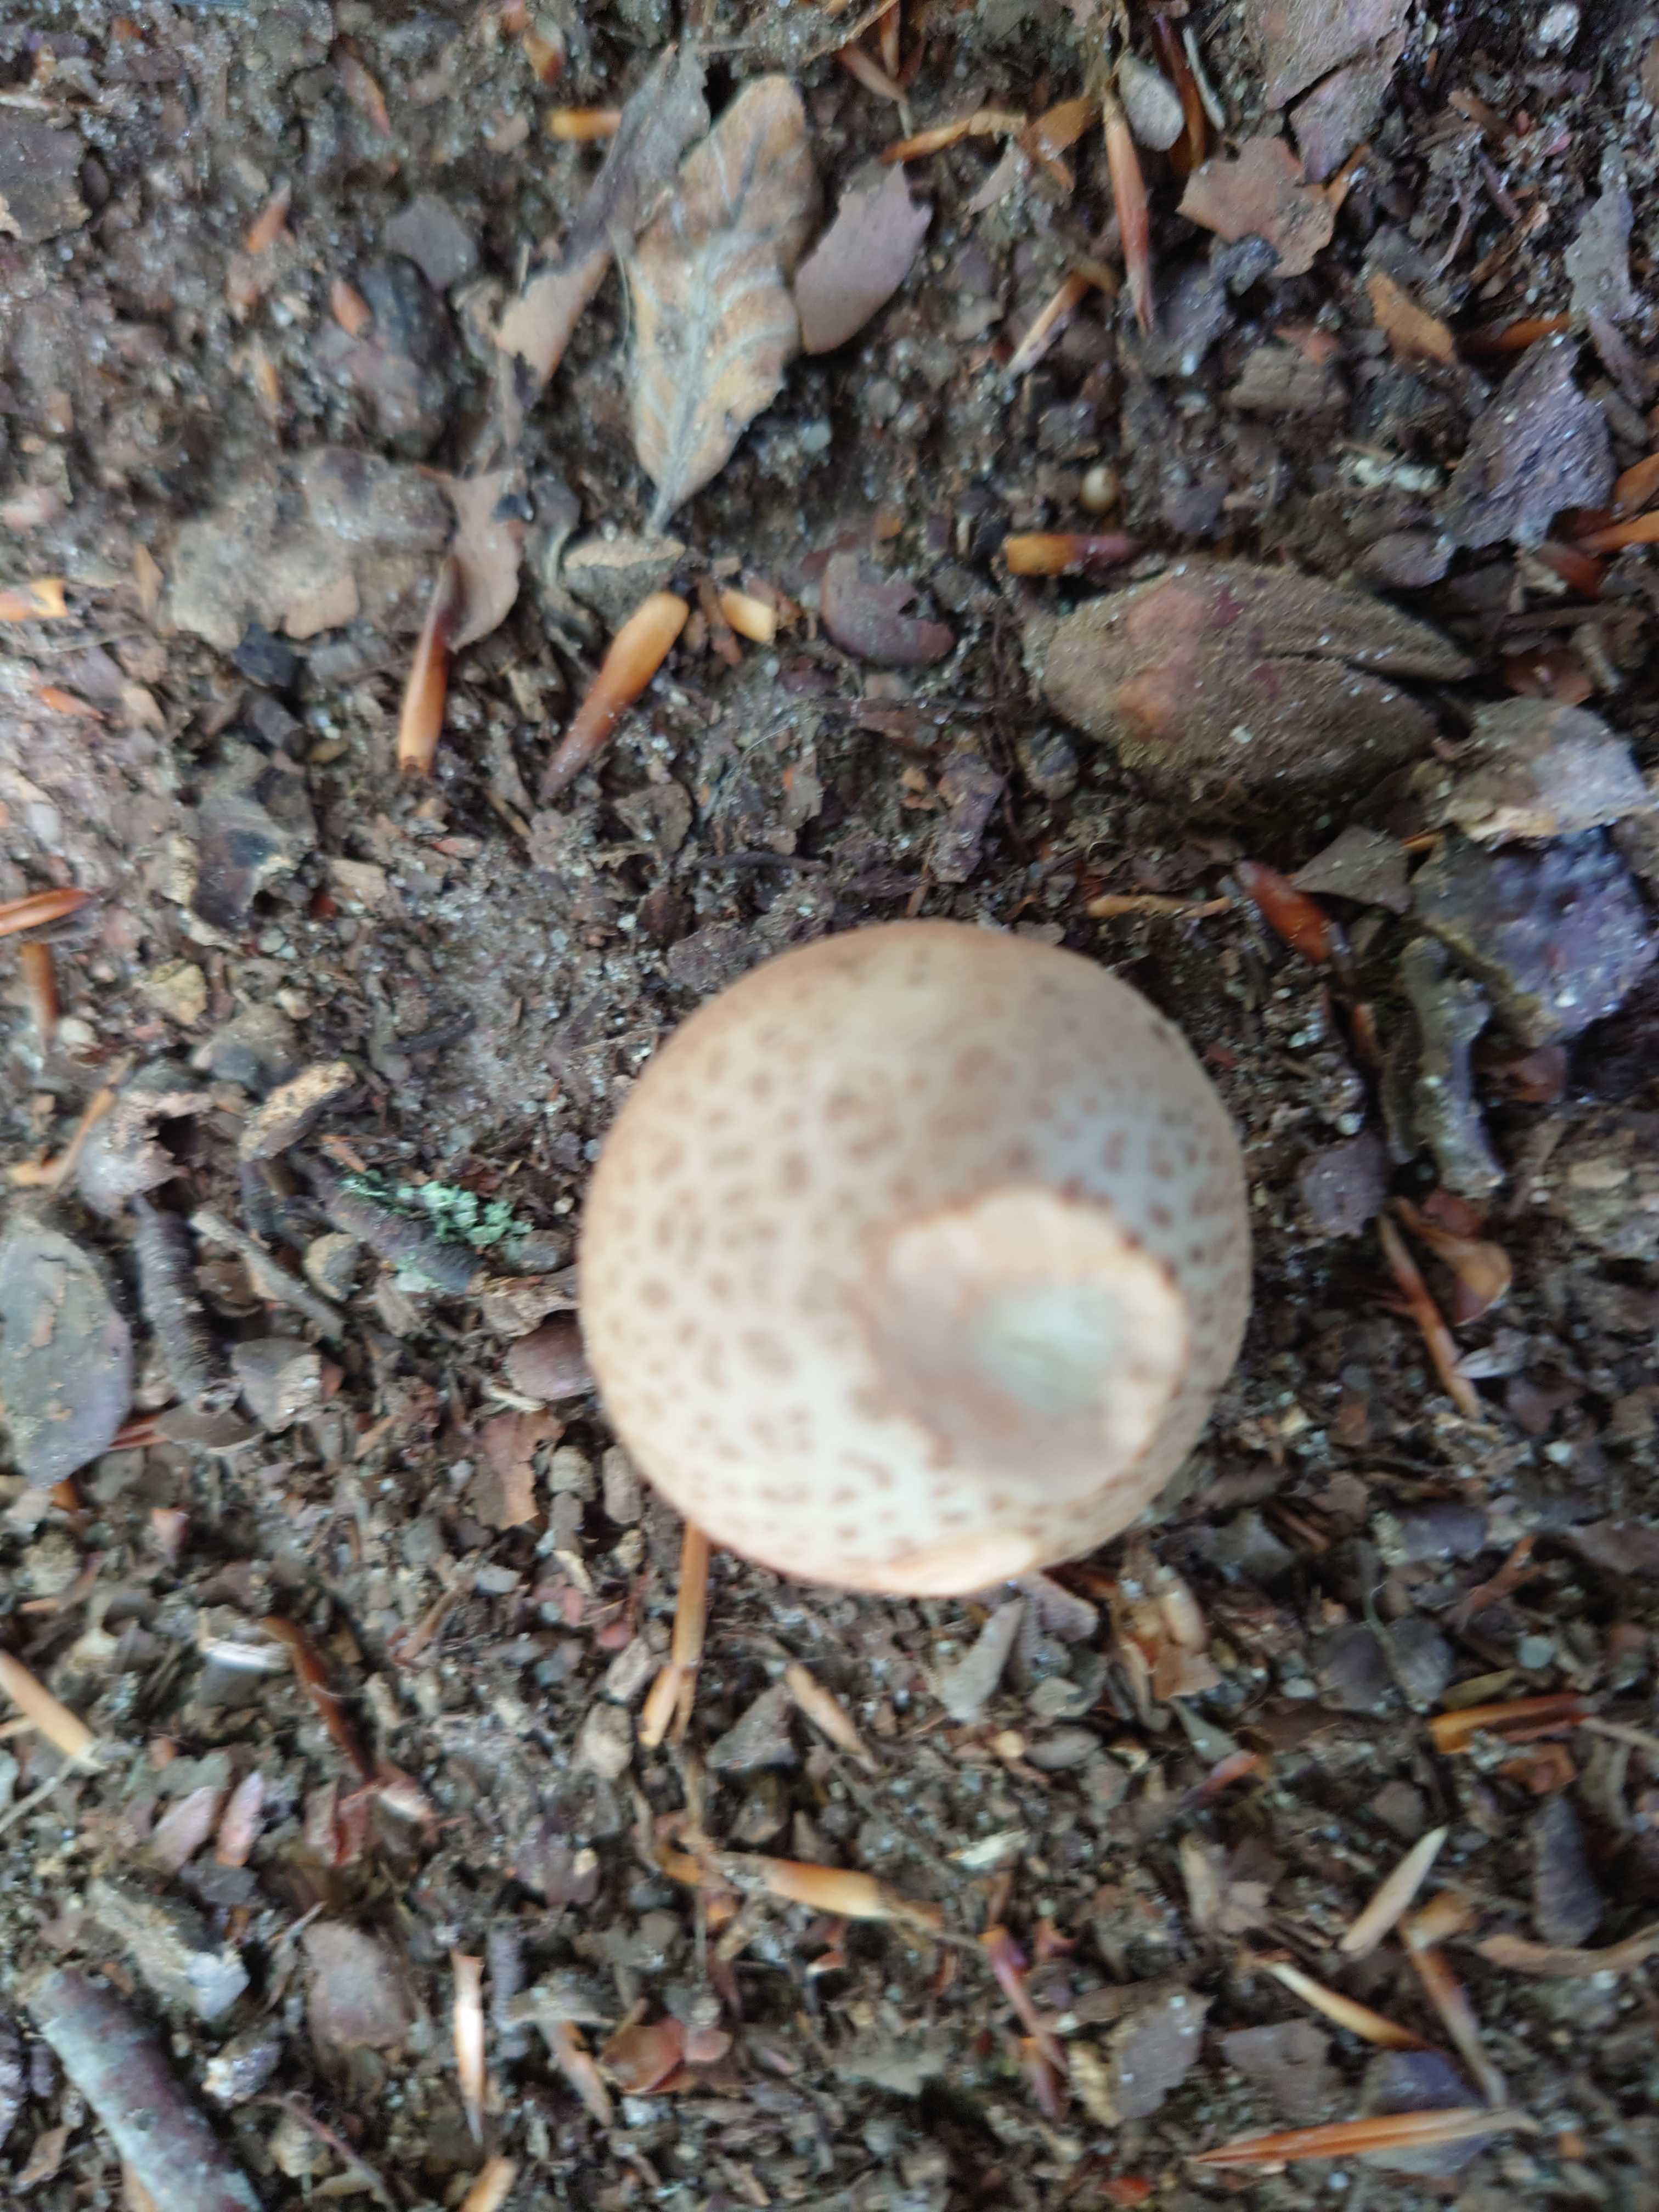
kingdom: Fungi
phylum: Basidiomycota
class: Agaricomycetes
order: Agaricales
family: Amanitaceae
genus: Amanita
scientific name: Amanita rubescens
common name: rødmende fluesvamp
